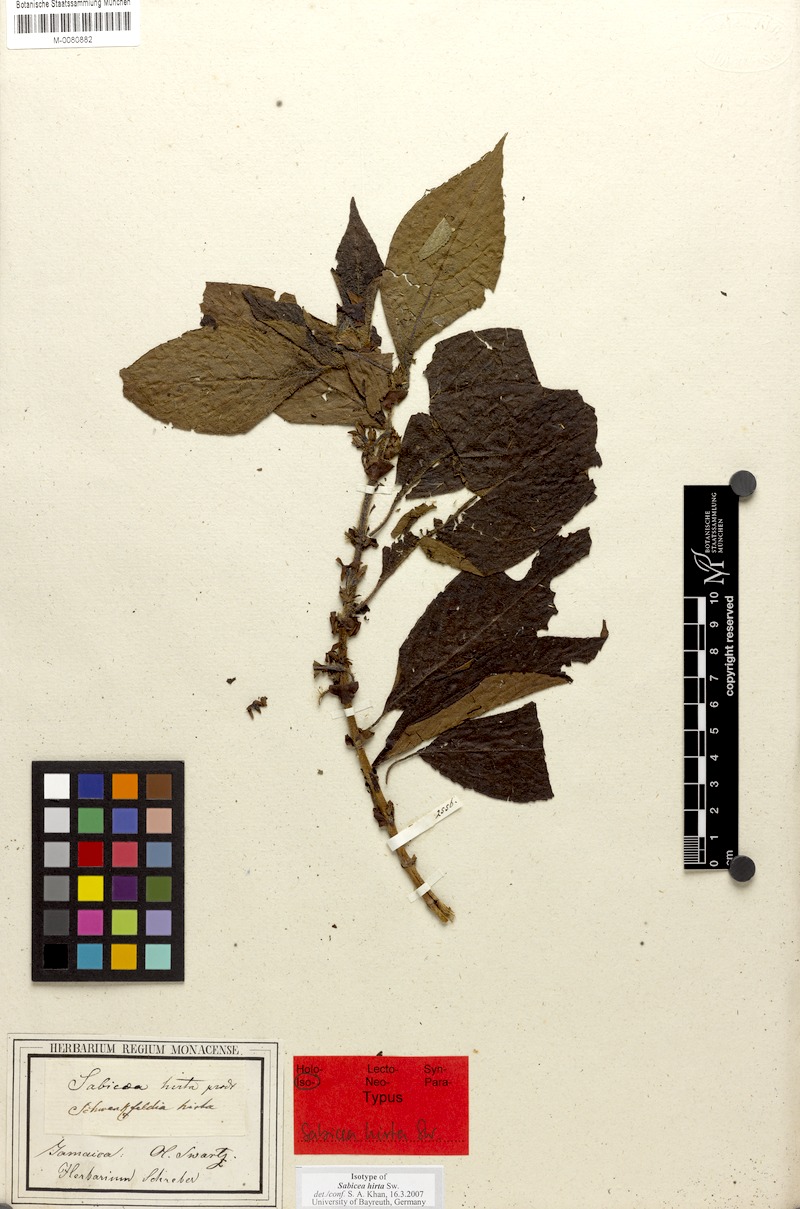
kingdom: Plantae
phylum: Tracheophyta
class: Magnoliopsida
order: Gentianales
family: Rubiaceae
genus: Sabicea
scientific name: Sabicea hirta
